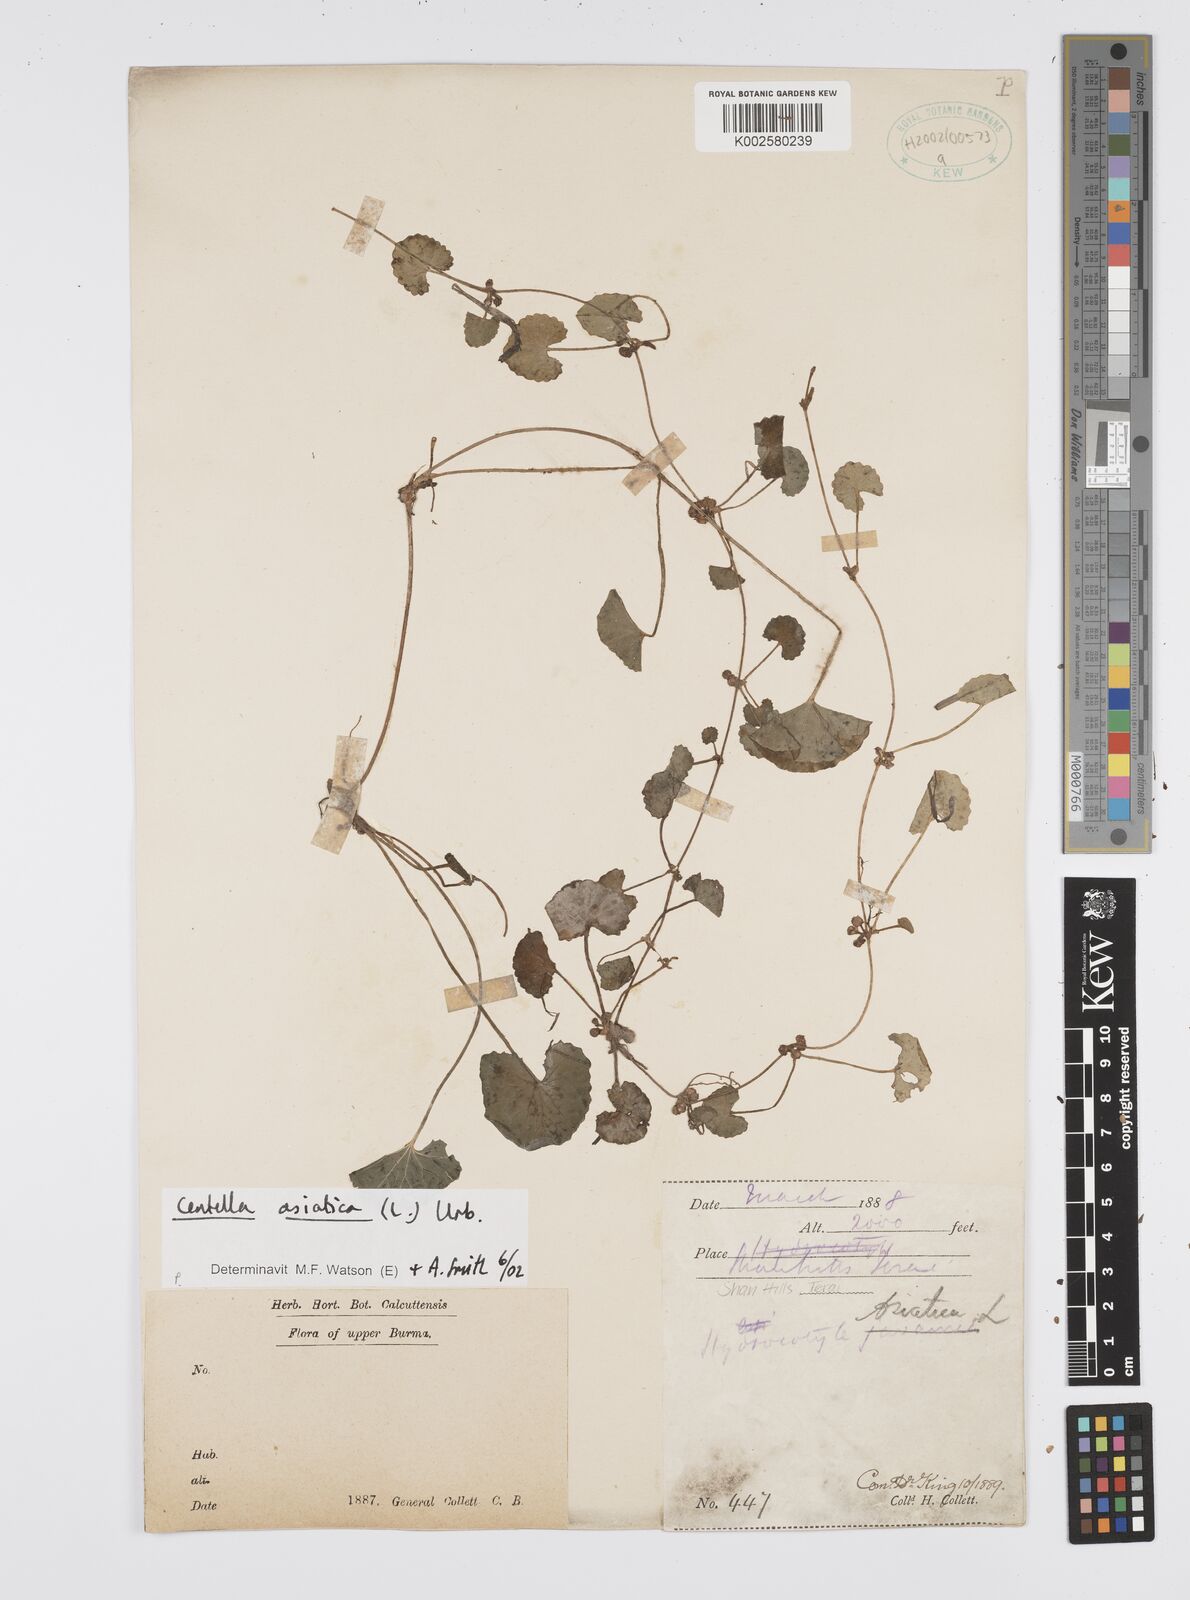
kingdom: Plantae
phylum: Tracheophyta
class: Magnoliopsida
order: Apiales
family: Apiaceae
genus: Centella
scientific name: Centella asiatica
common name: Spadeleaf
